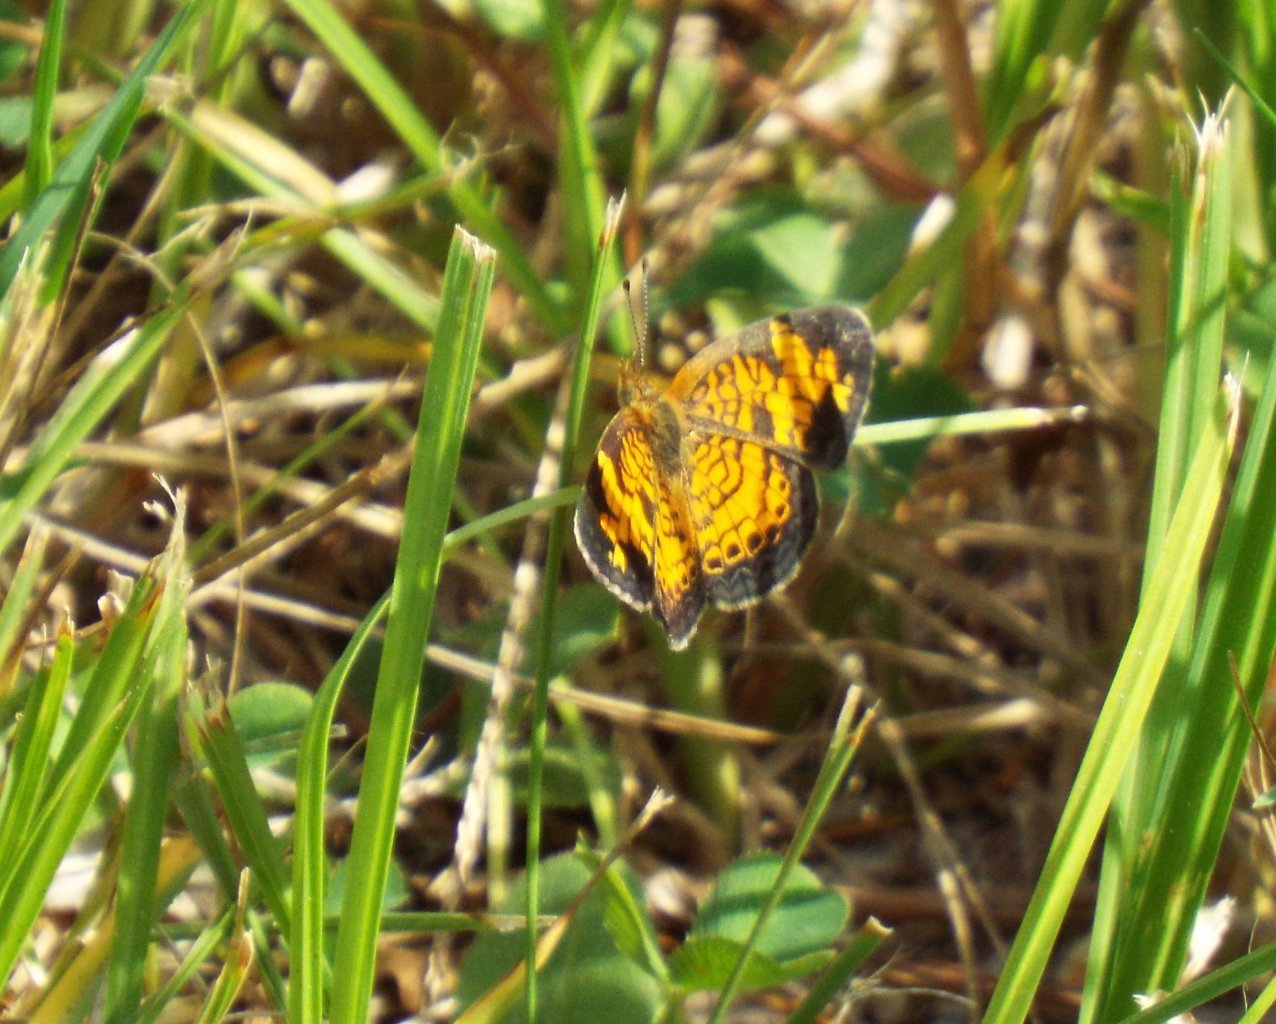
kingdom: Animalia
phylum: Arthropoda
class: Insecta
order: Lepidoptera
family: Nymphalidae
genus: Phyciodes
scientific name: Phyciodes tharos
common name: Pearl Crescent
